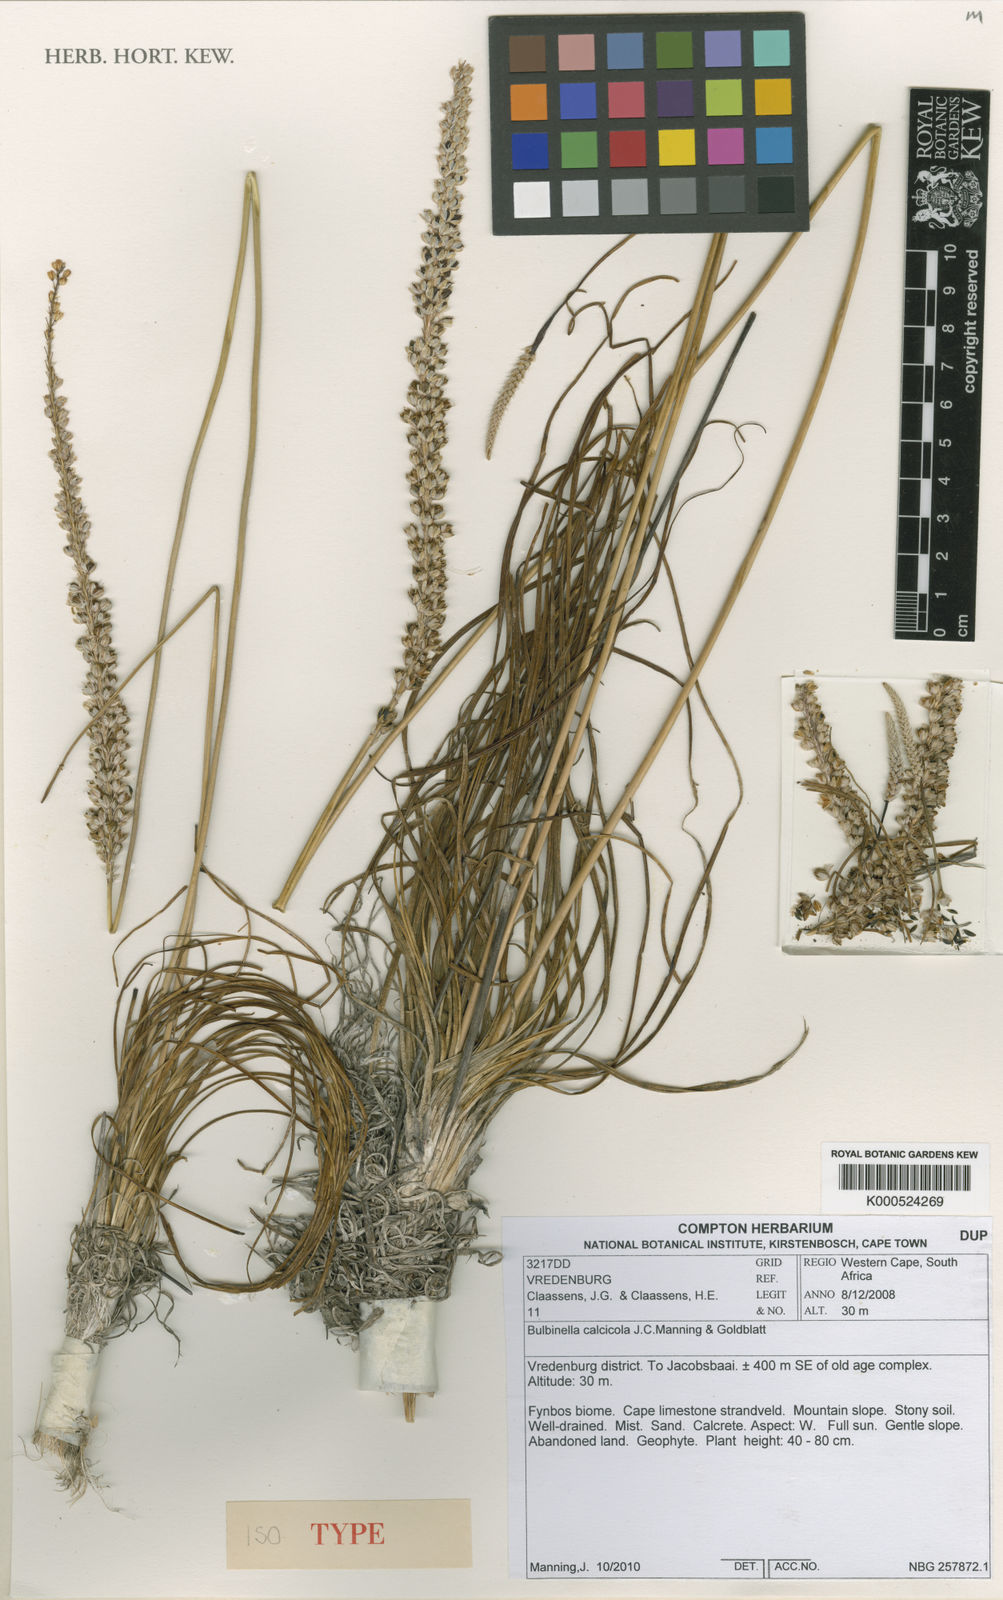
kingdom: Plantae
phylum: Tracheophyta
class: Liliopsida
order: Asparagales
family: Asphodelaceae
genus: Bulbinella
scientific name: Bulbinella calcicola
